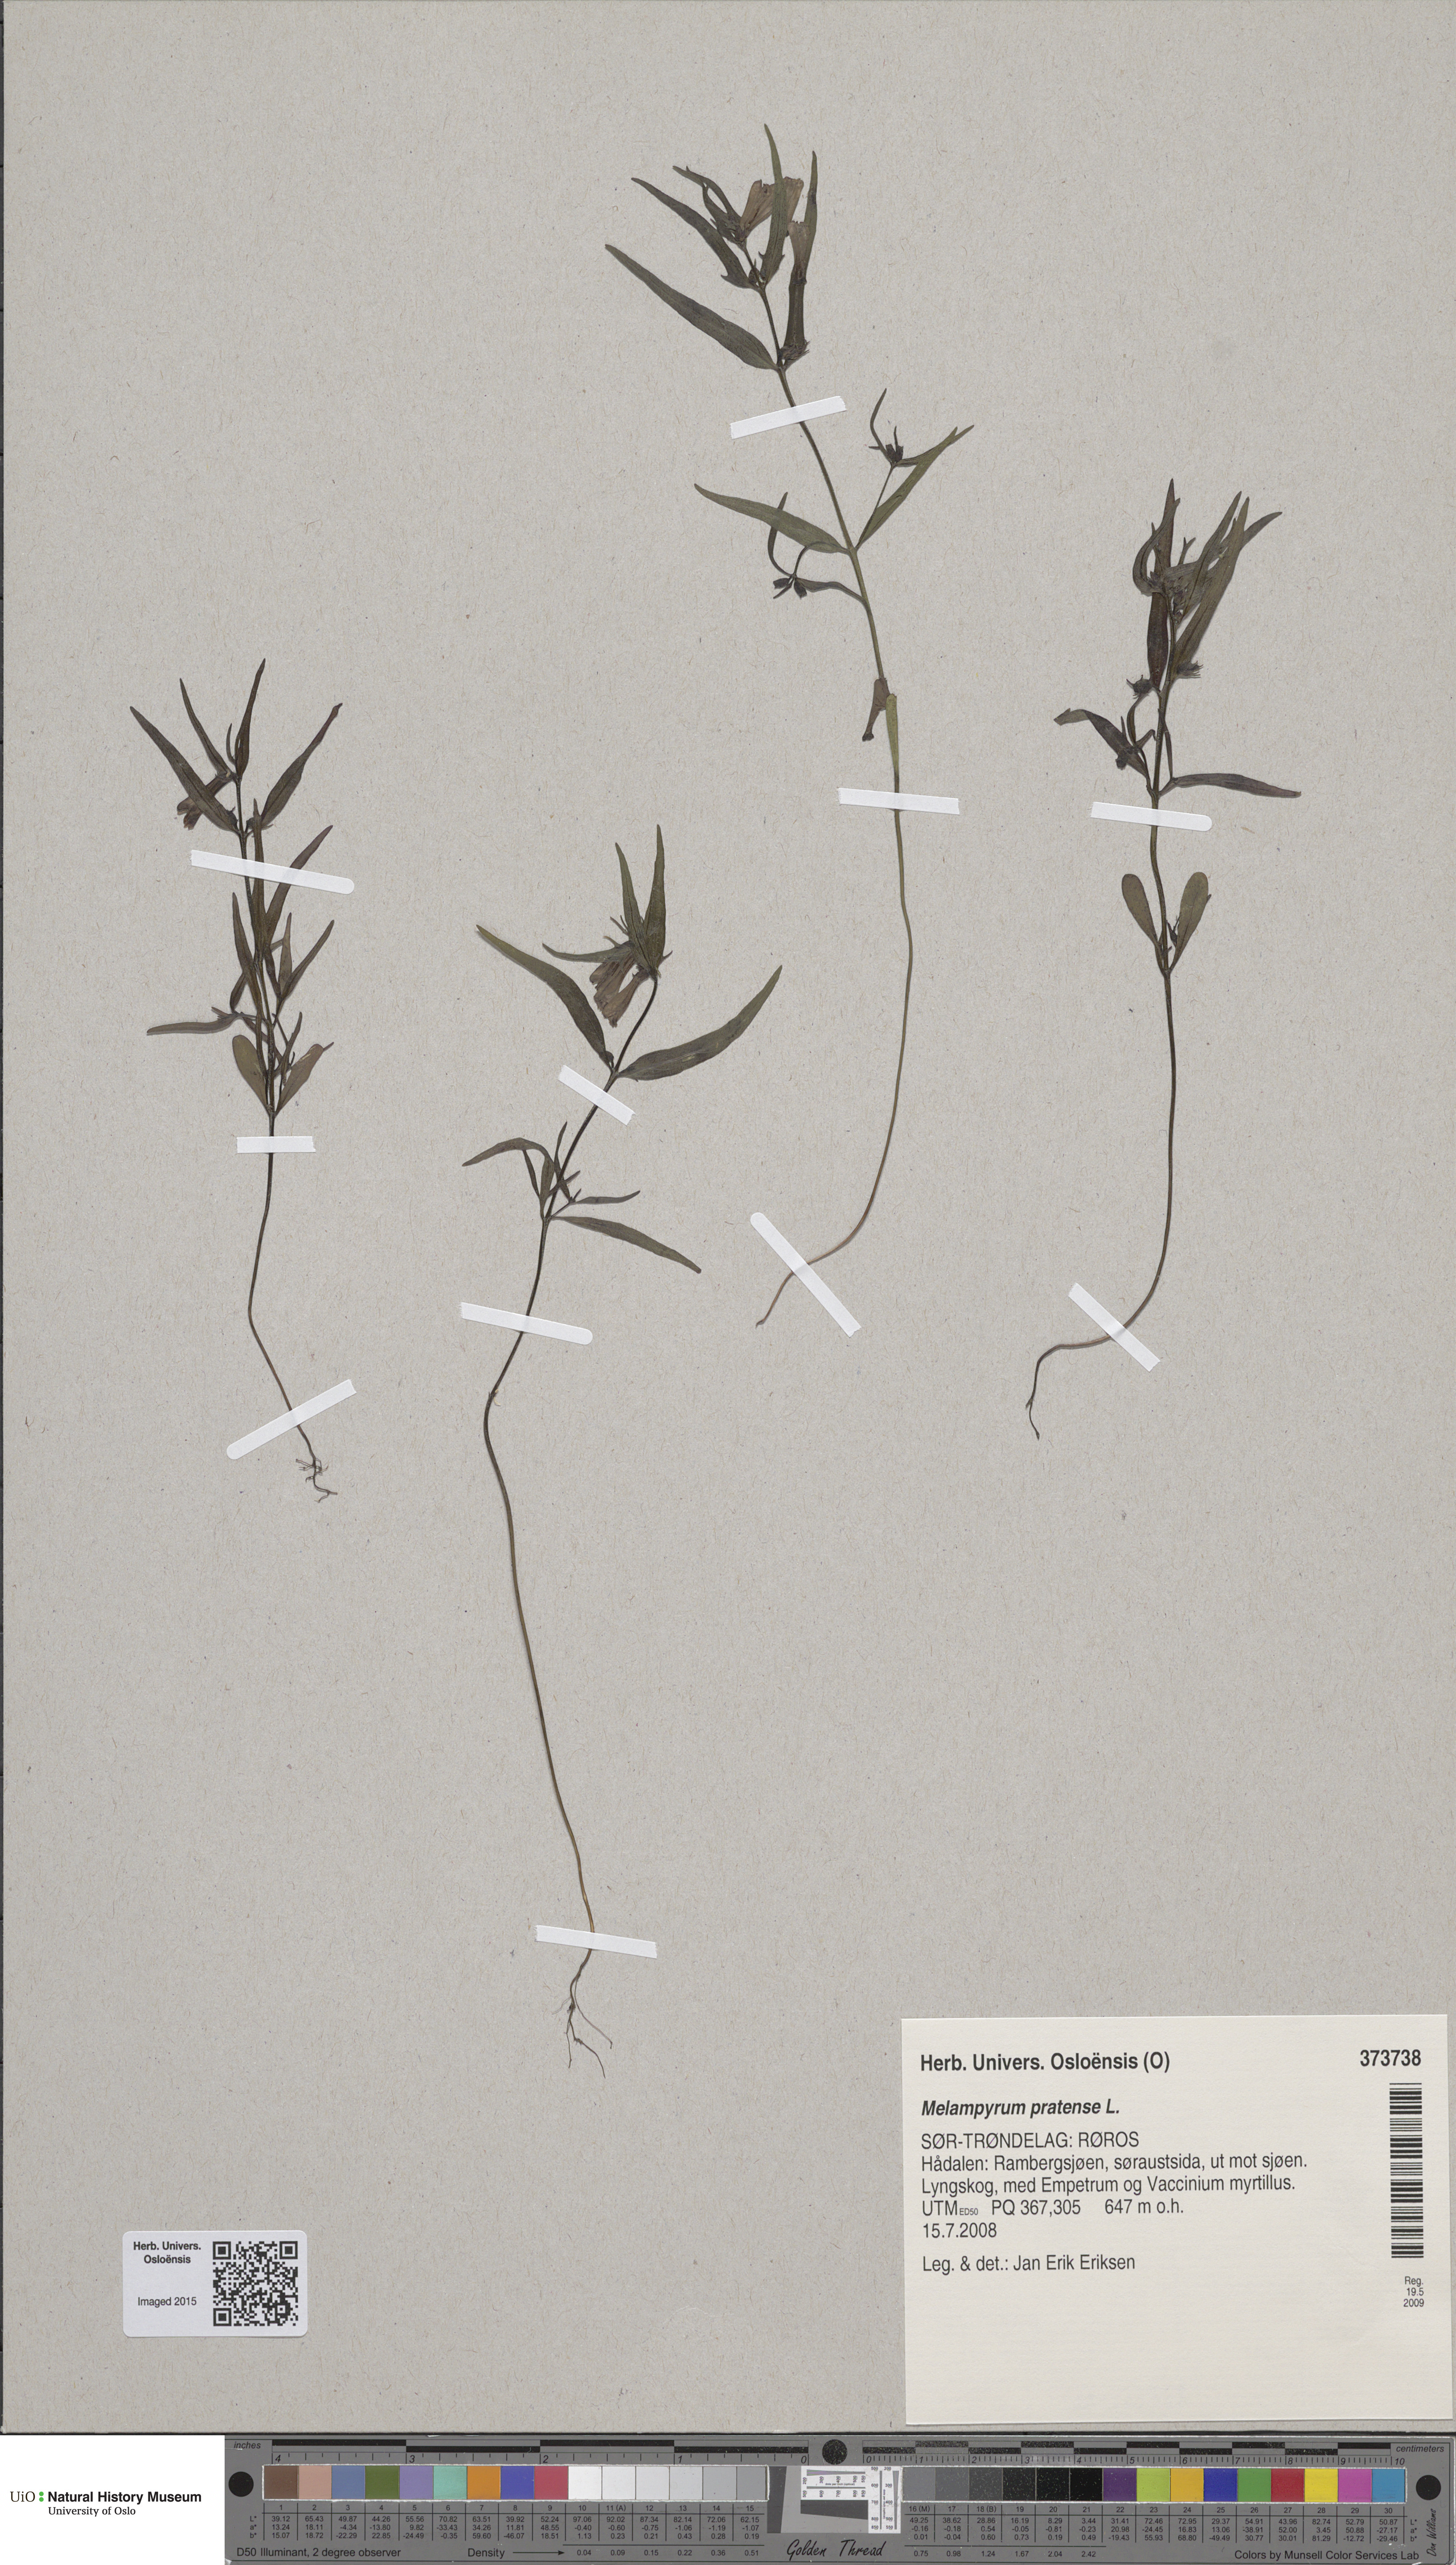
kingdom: Plantae
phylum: Tracheophyta
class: Magnoliopsida
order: Lamiales
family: Orobanchaceae
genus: Melampyrum
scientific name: Melampyrum pratense
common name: Common cow-wheat
